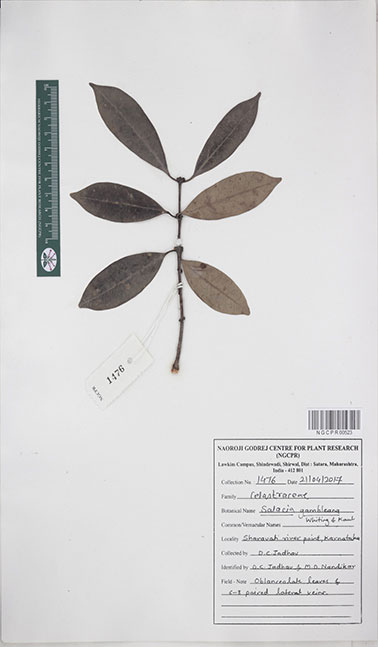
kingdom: Plantae
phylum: Tracheophyta
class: Magnoliopsida
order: Celastrales
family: Celastraceae
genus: Salacia
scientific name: Salacia gambleana
